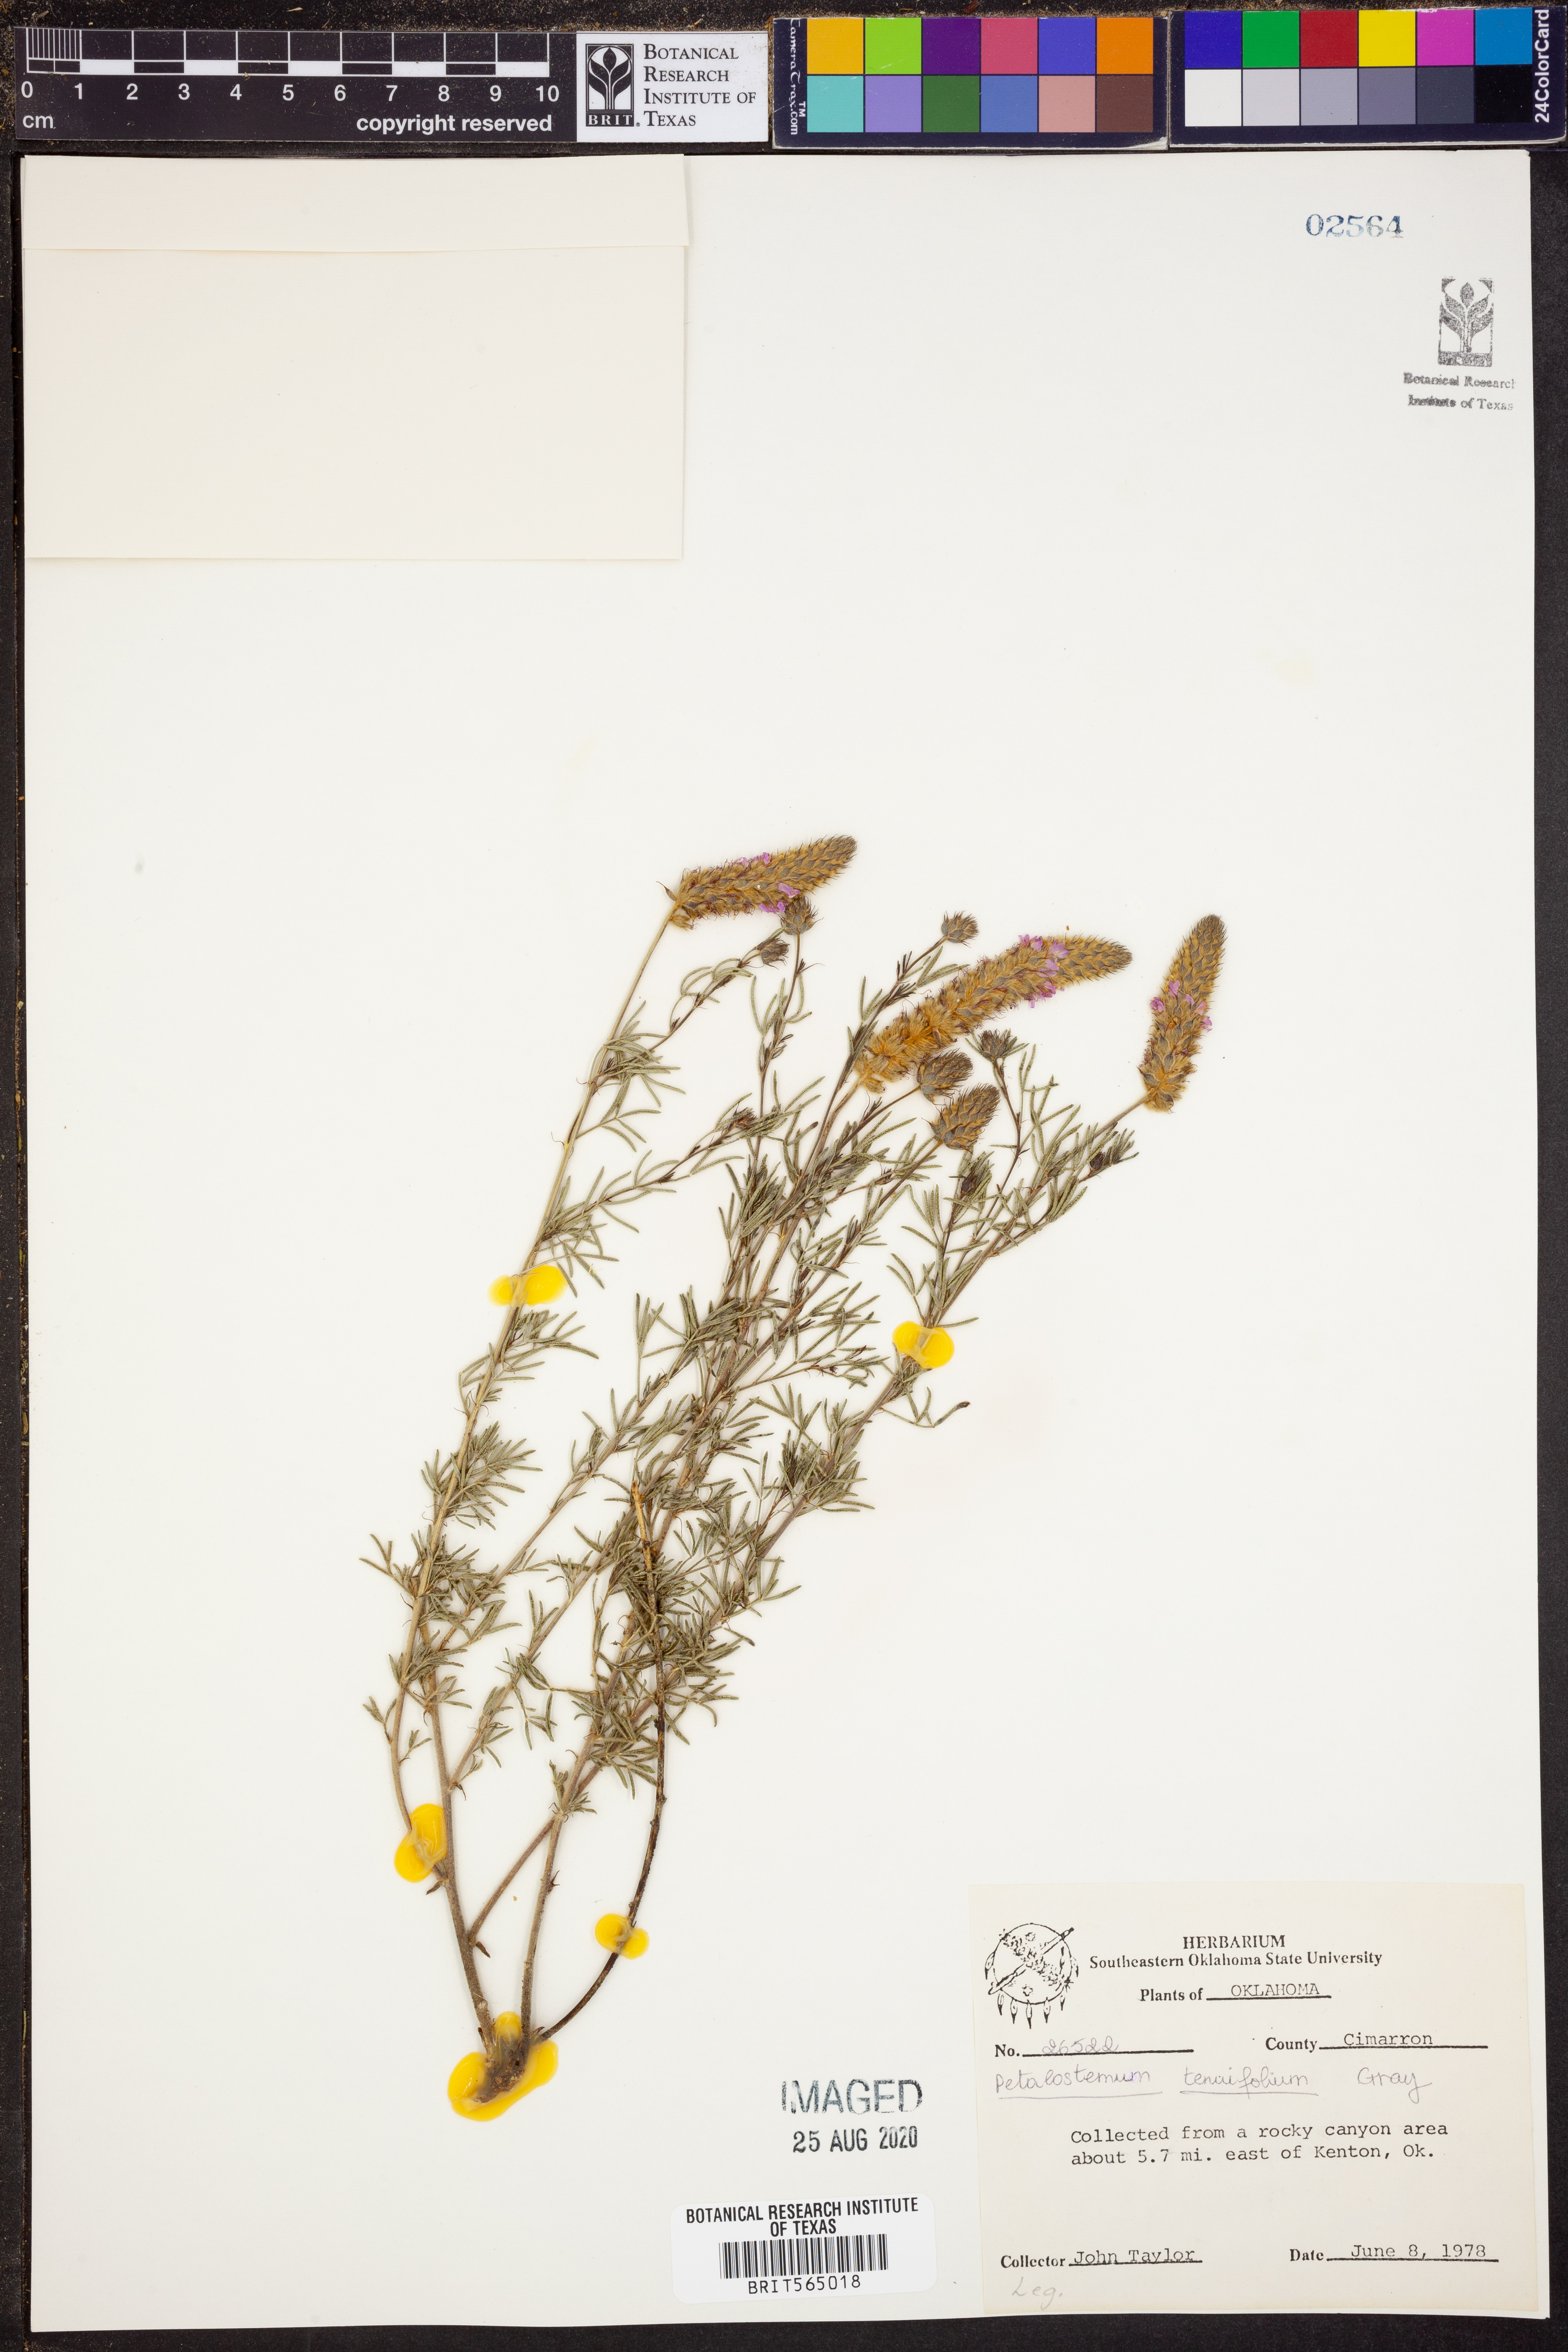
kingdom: Plantae
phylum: Tracheophyta
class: Magnoliopsida
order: Fabales
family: Fabaceae
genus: Dalea
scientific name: Dalea tenuifolia
